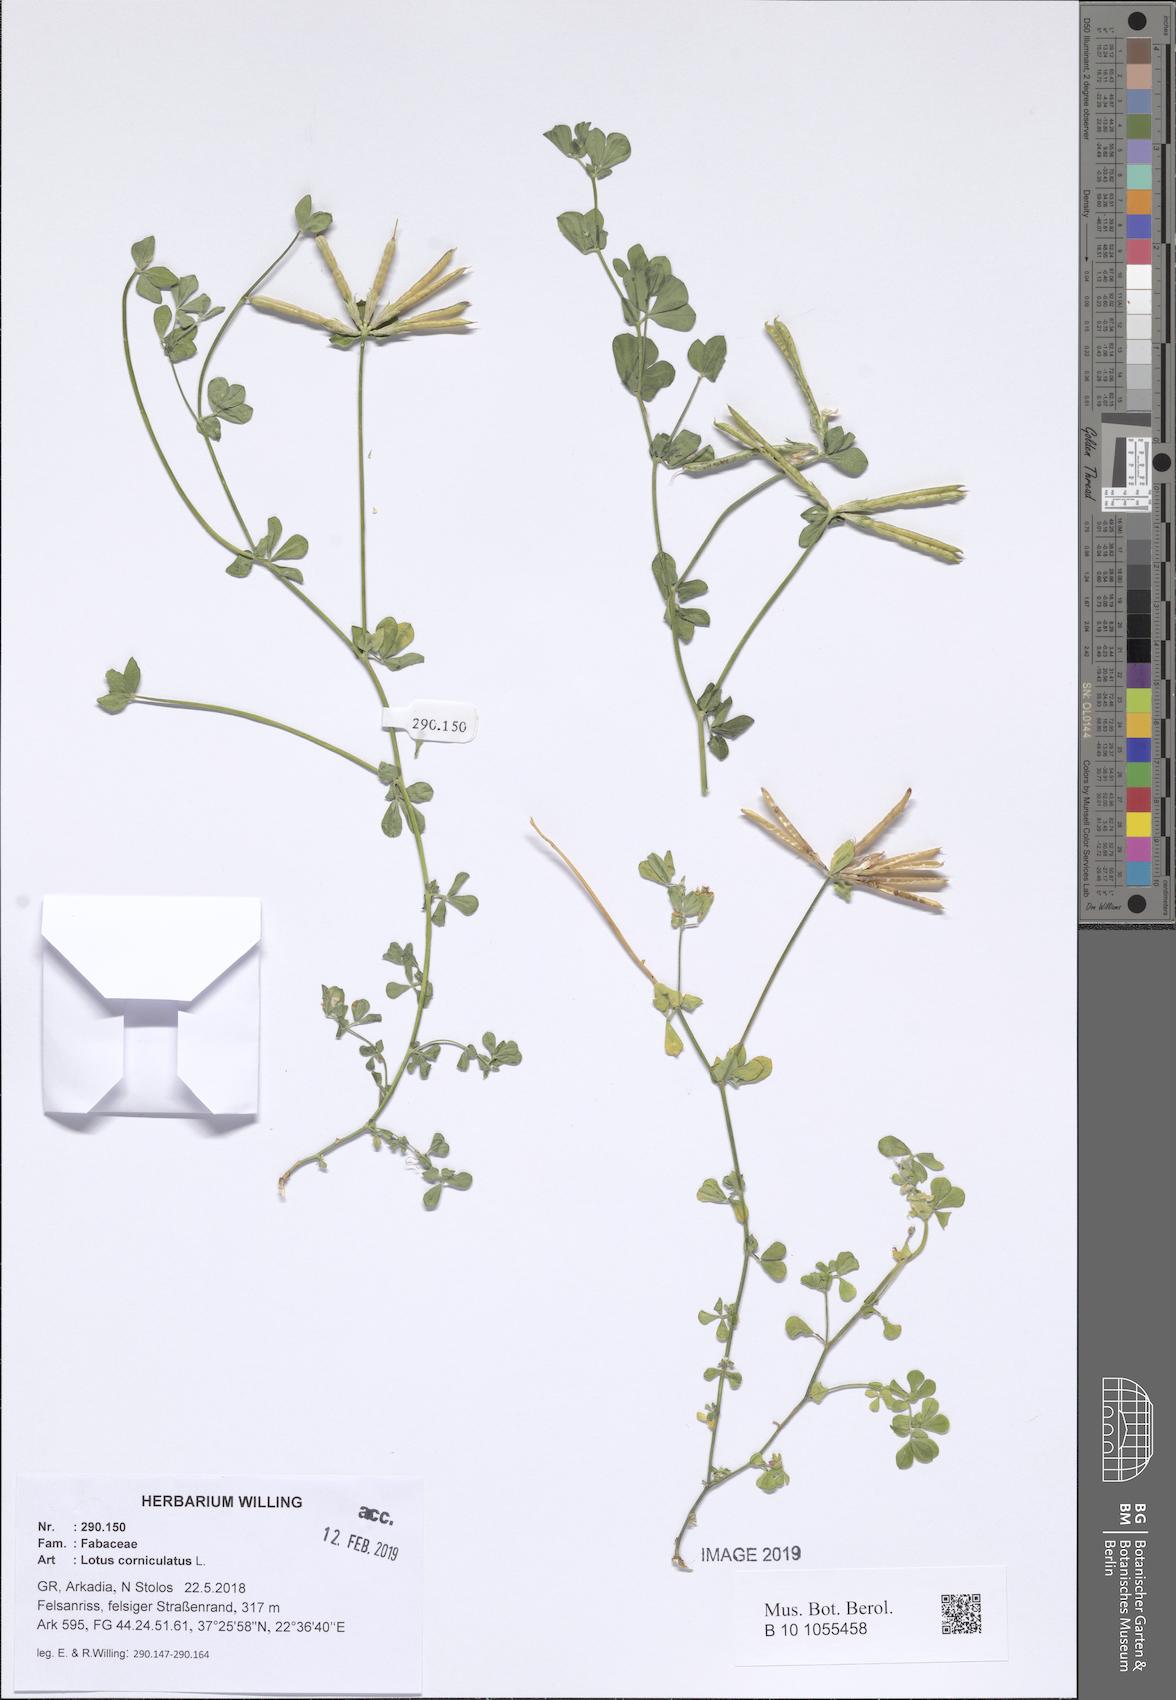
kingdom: Plantae
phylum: Tracheophyta
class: Magnoliopsida
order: Fabales
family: Fabaceae
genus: Lotus
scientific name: Lotus corniculatus
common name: Common bird's-foot-trefoil
